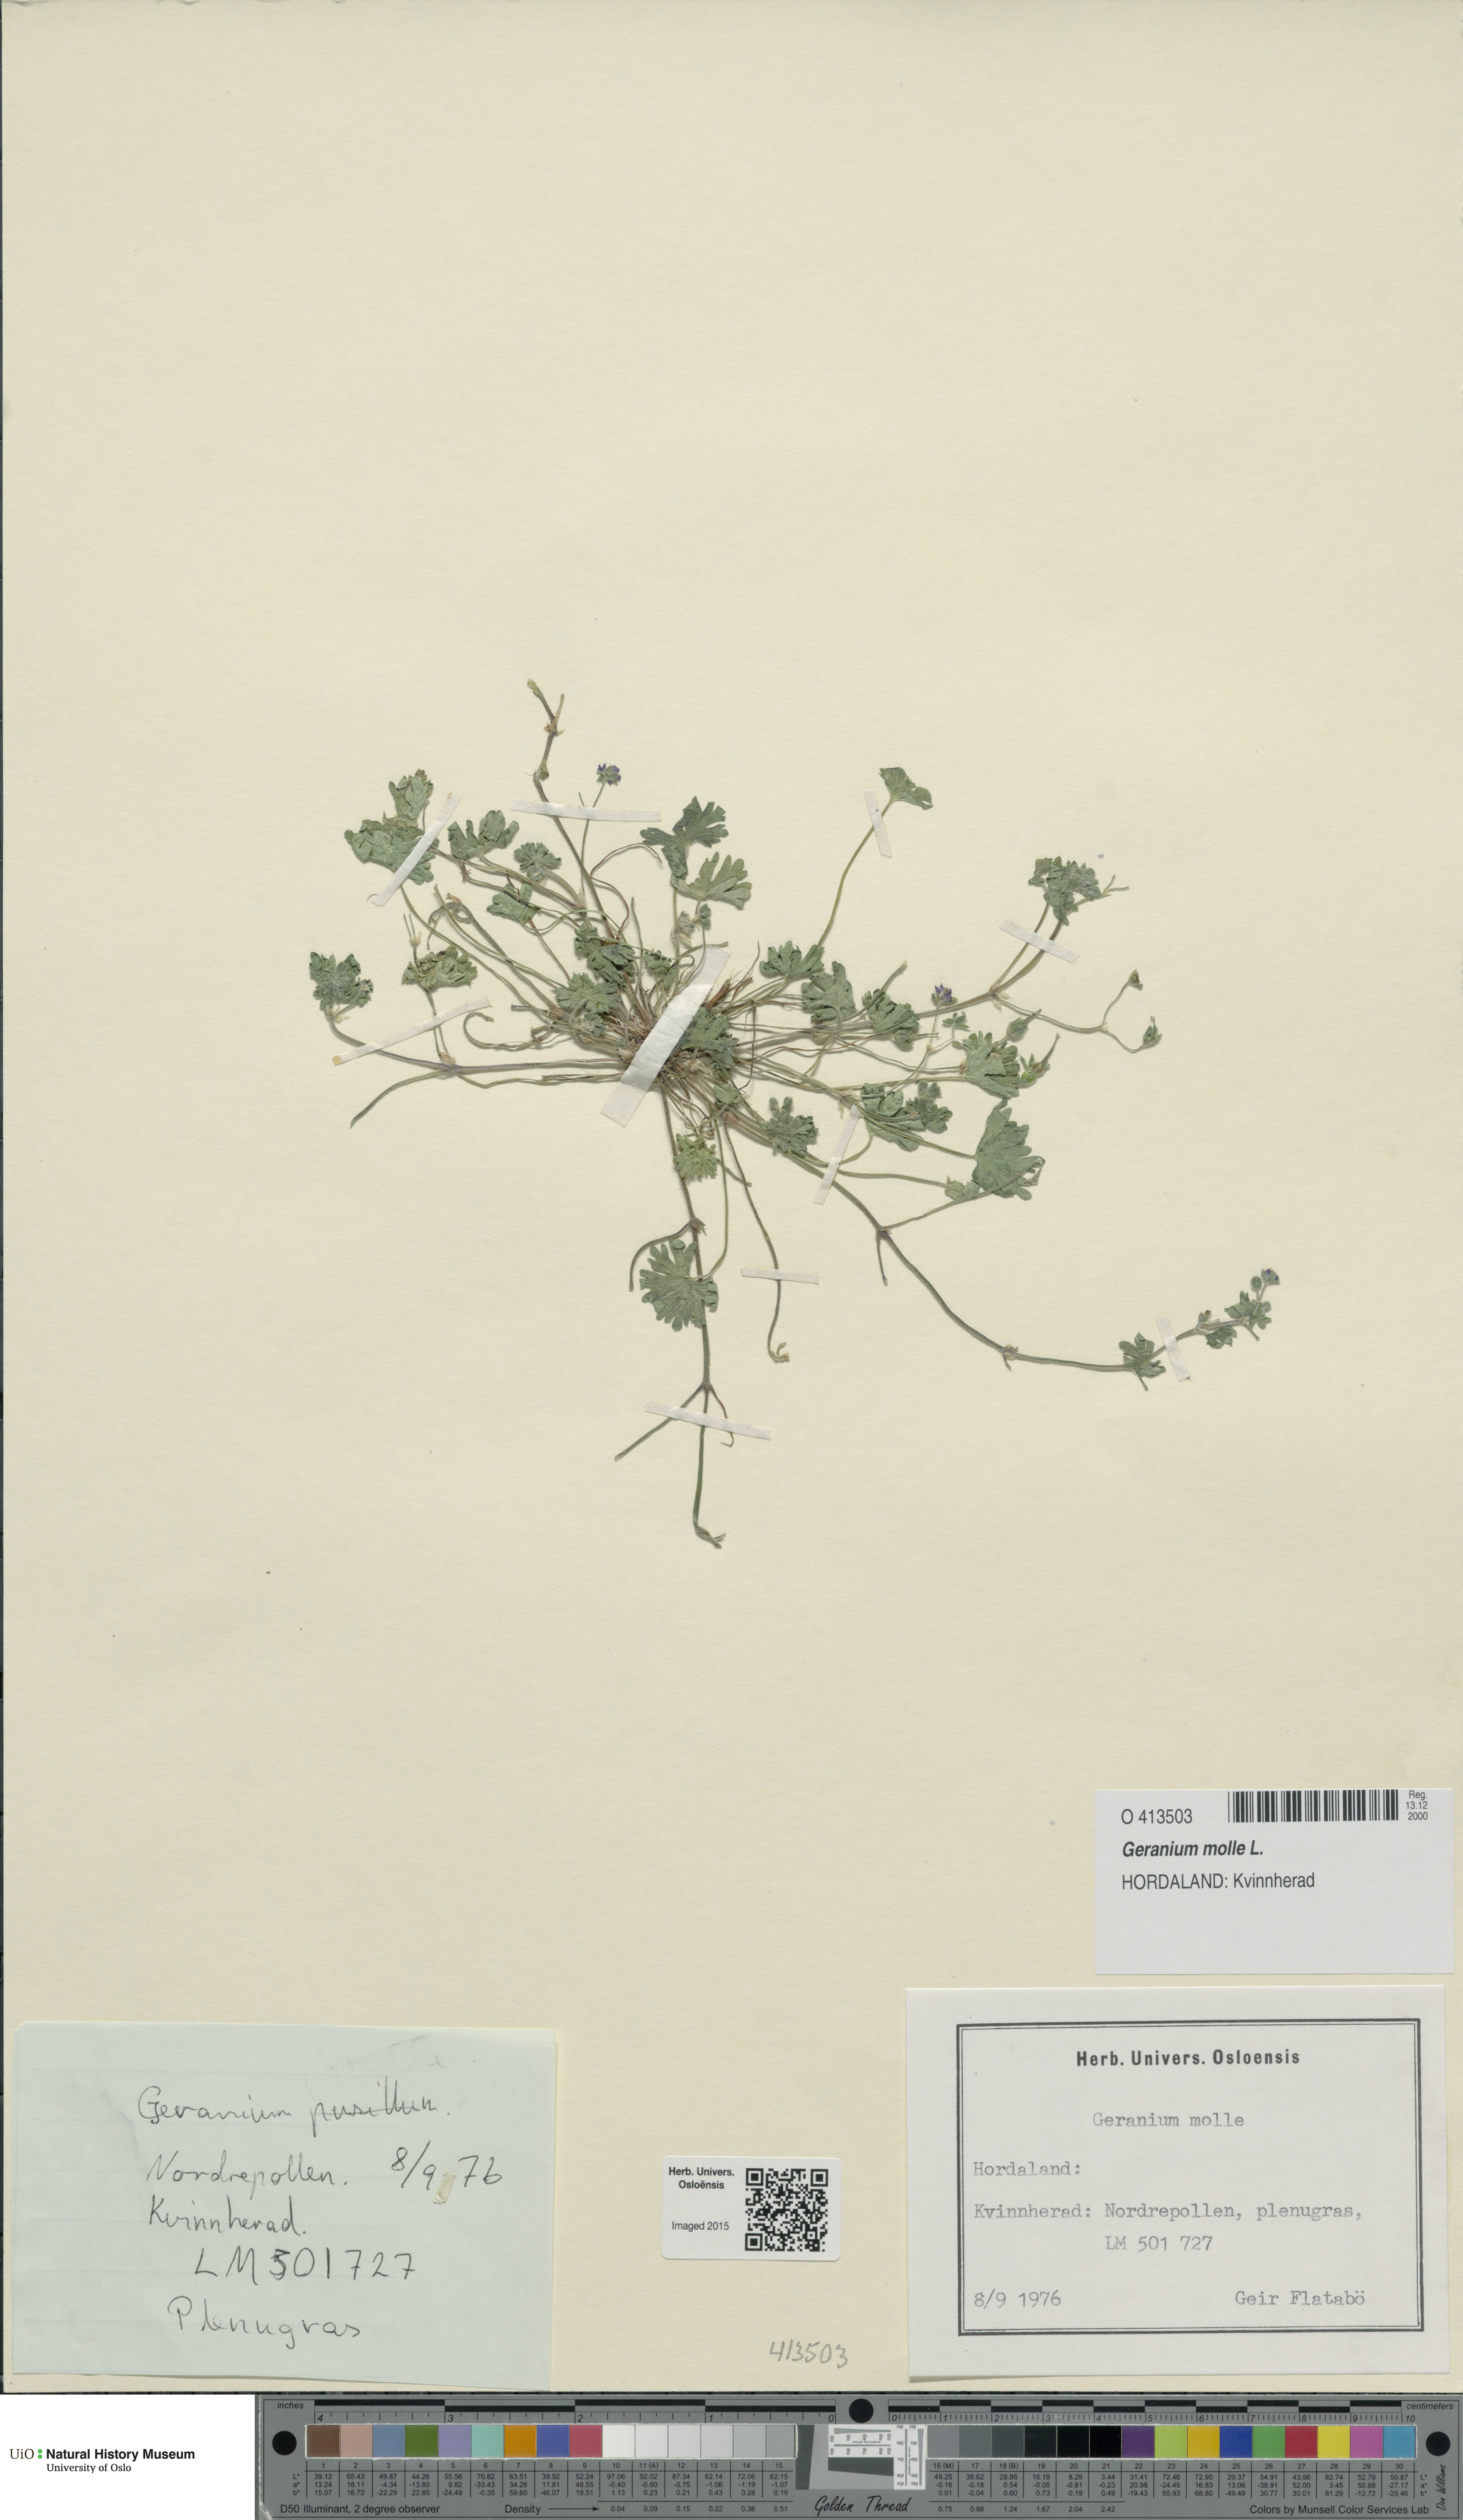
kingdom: Plantae
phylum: Tracheophyta
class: Magnoliopsida
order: Geraniales
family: Geraniaceae
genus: Geranium
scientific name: Geranium molle
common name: Dove's-foot crane's-bill
